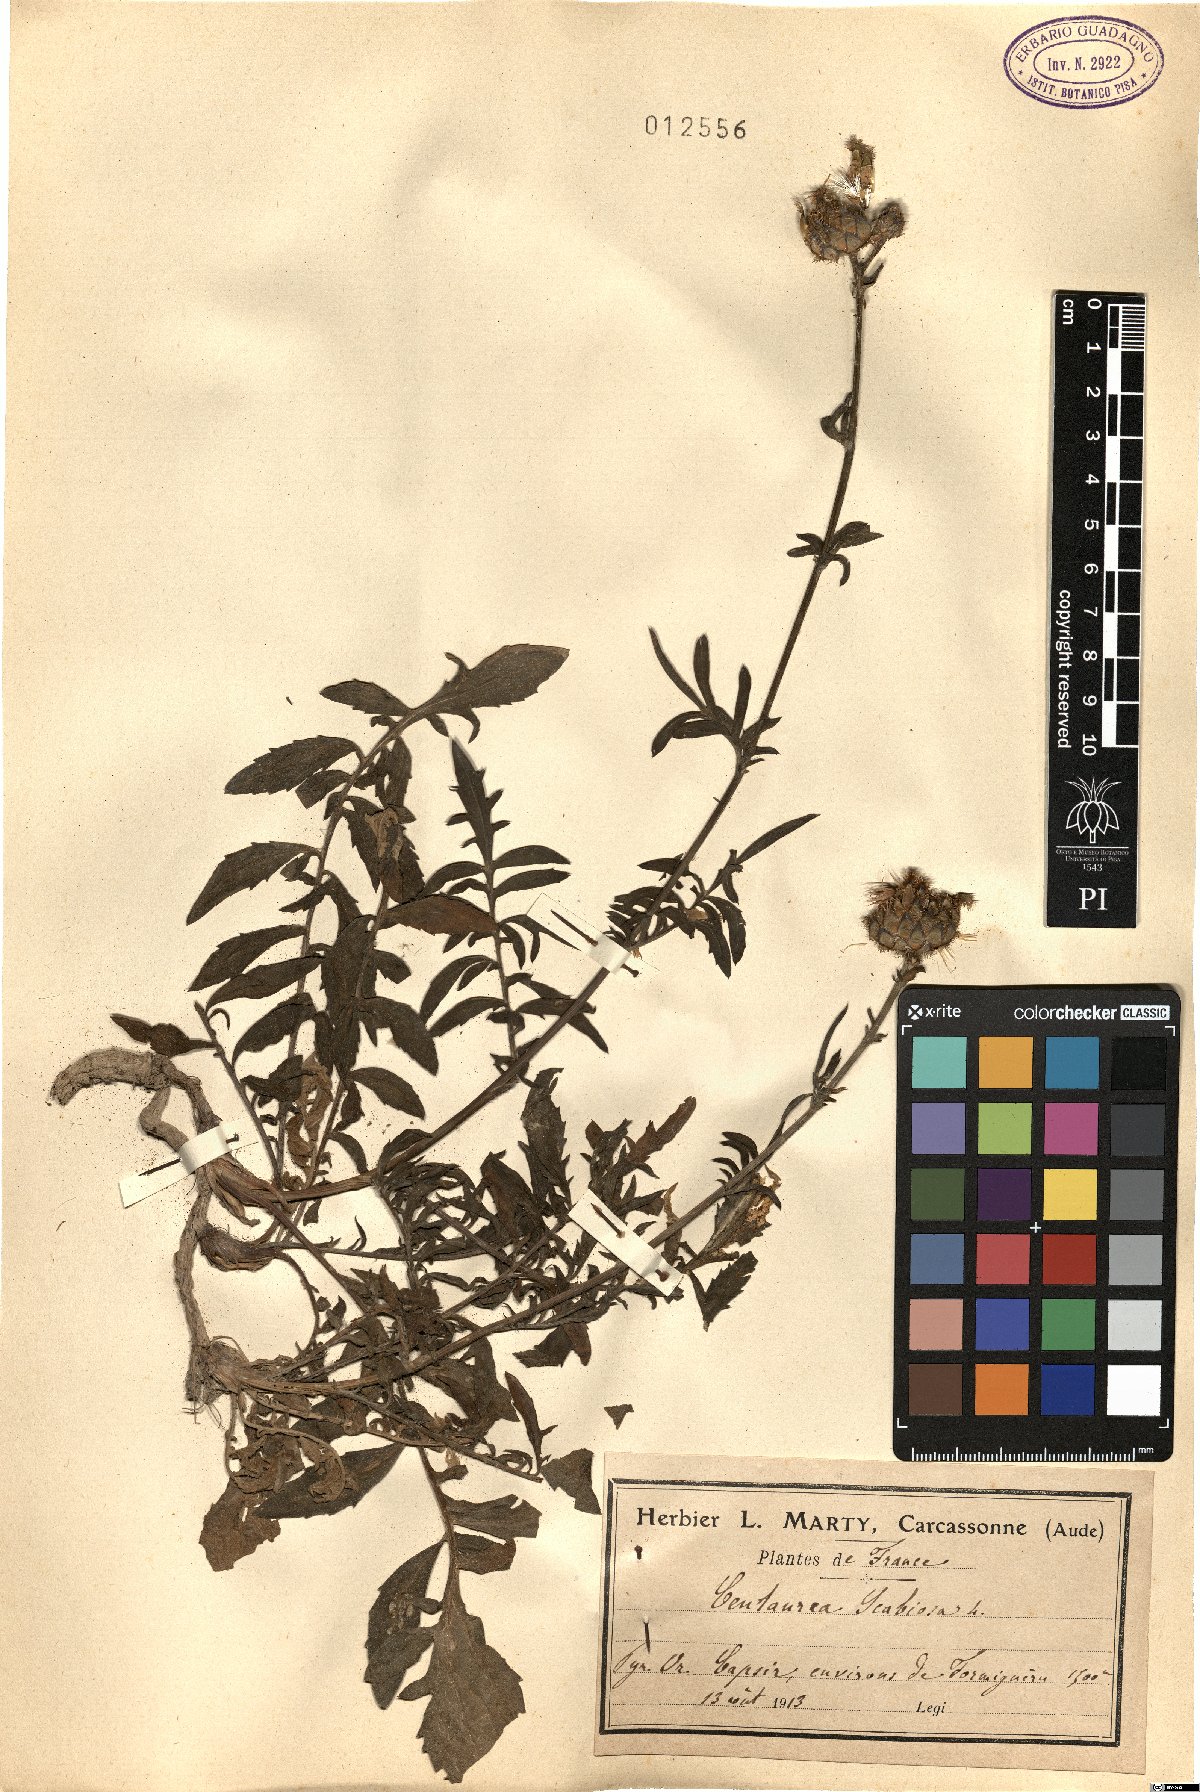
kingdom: Plantae
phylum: Tracheophyta
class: Magnoliopsida
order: Asterales
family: Asteraceae
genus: Centaurea
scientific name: Centaurea scabiosa
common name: Greater knapweed
